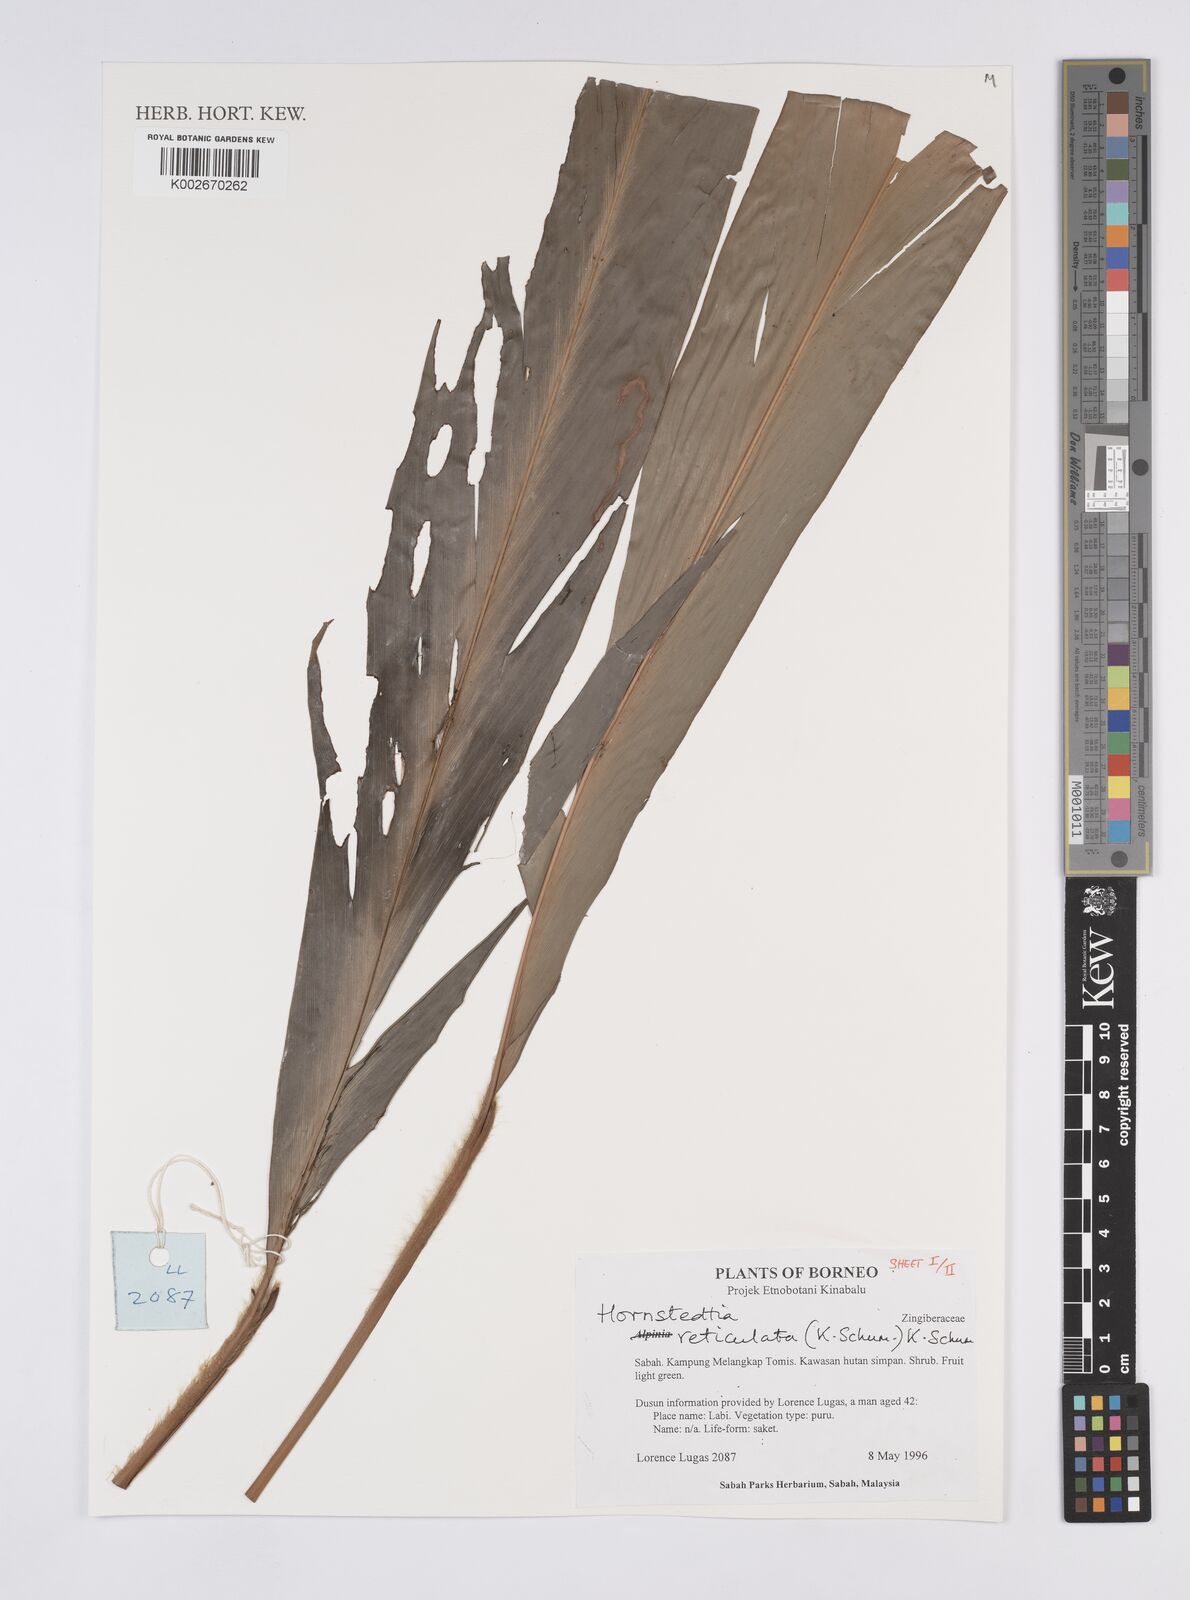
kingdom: Plantae
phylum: Tracheophyta
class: Liliopsida
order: Zingiberales
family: Zingiberaceae
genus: Hornstedtia
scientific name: Hornstedtia reticulata
